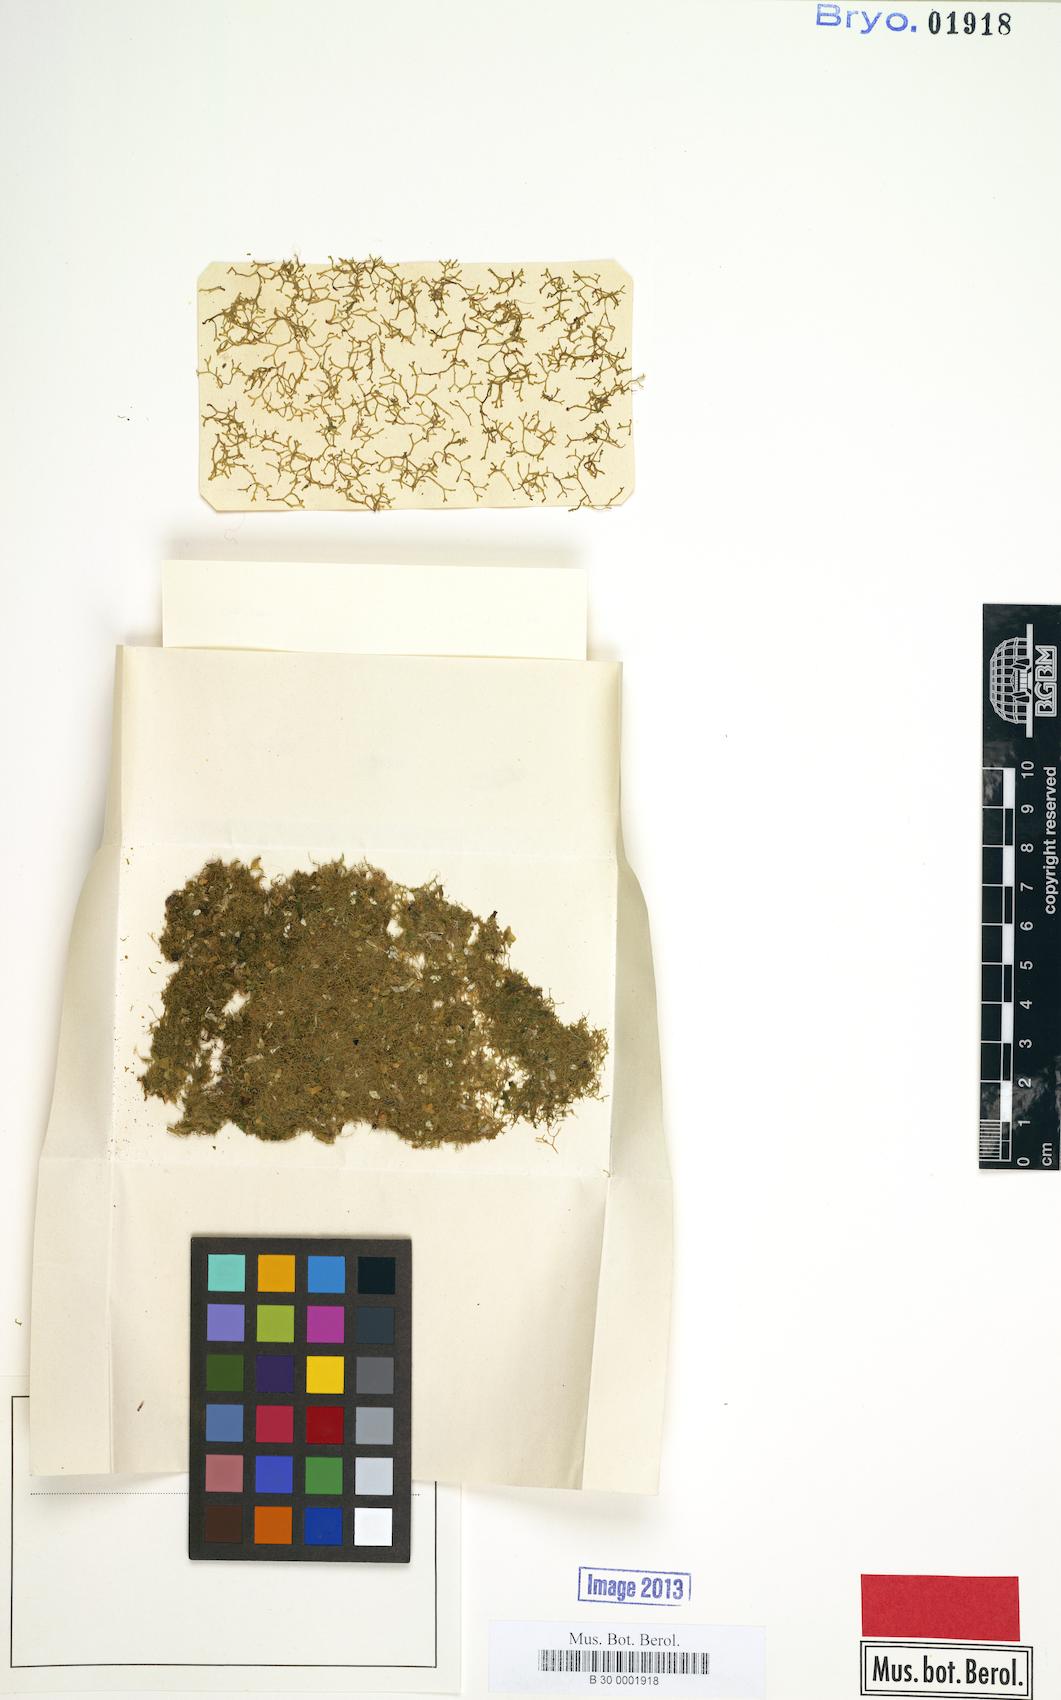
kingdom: Plantae
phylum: Marchantiophyta
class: Marchantiopsida
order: Marchantiales
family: Ricciaceae
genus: Riccia
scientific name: Riccia rhenana
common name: Pond crystalwort
